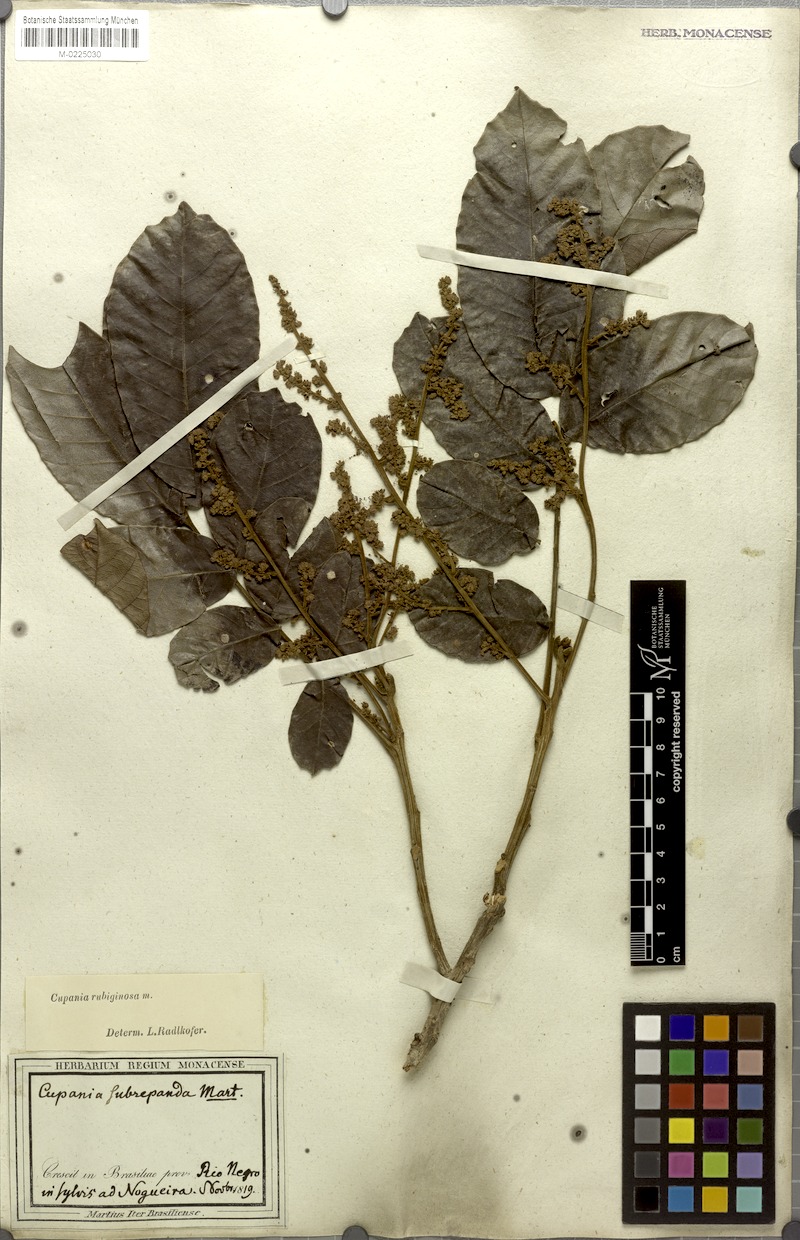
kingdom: Plantae
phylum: Tracheophyta
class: Magnoliopsida
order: Sapindales
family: Sapindaceae
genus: Cupania
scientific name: Cupania rubiginosa
